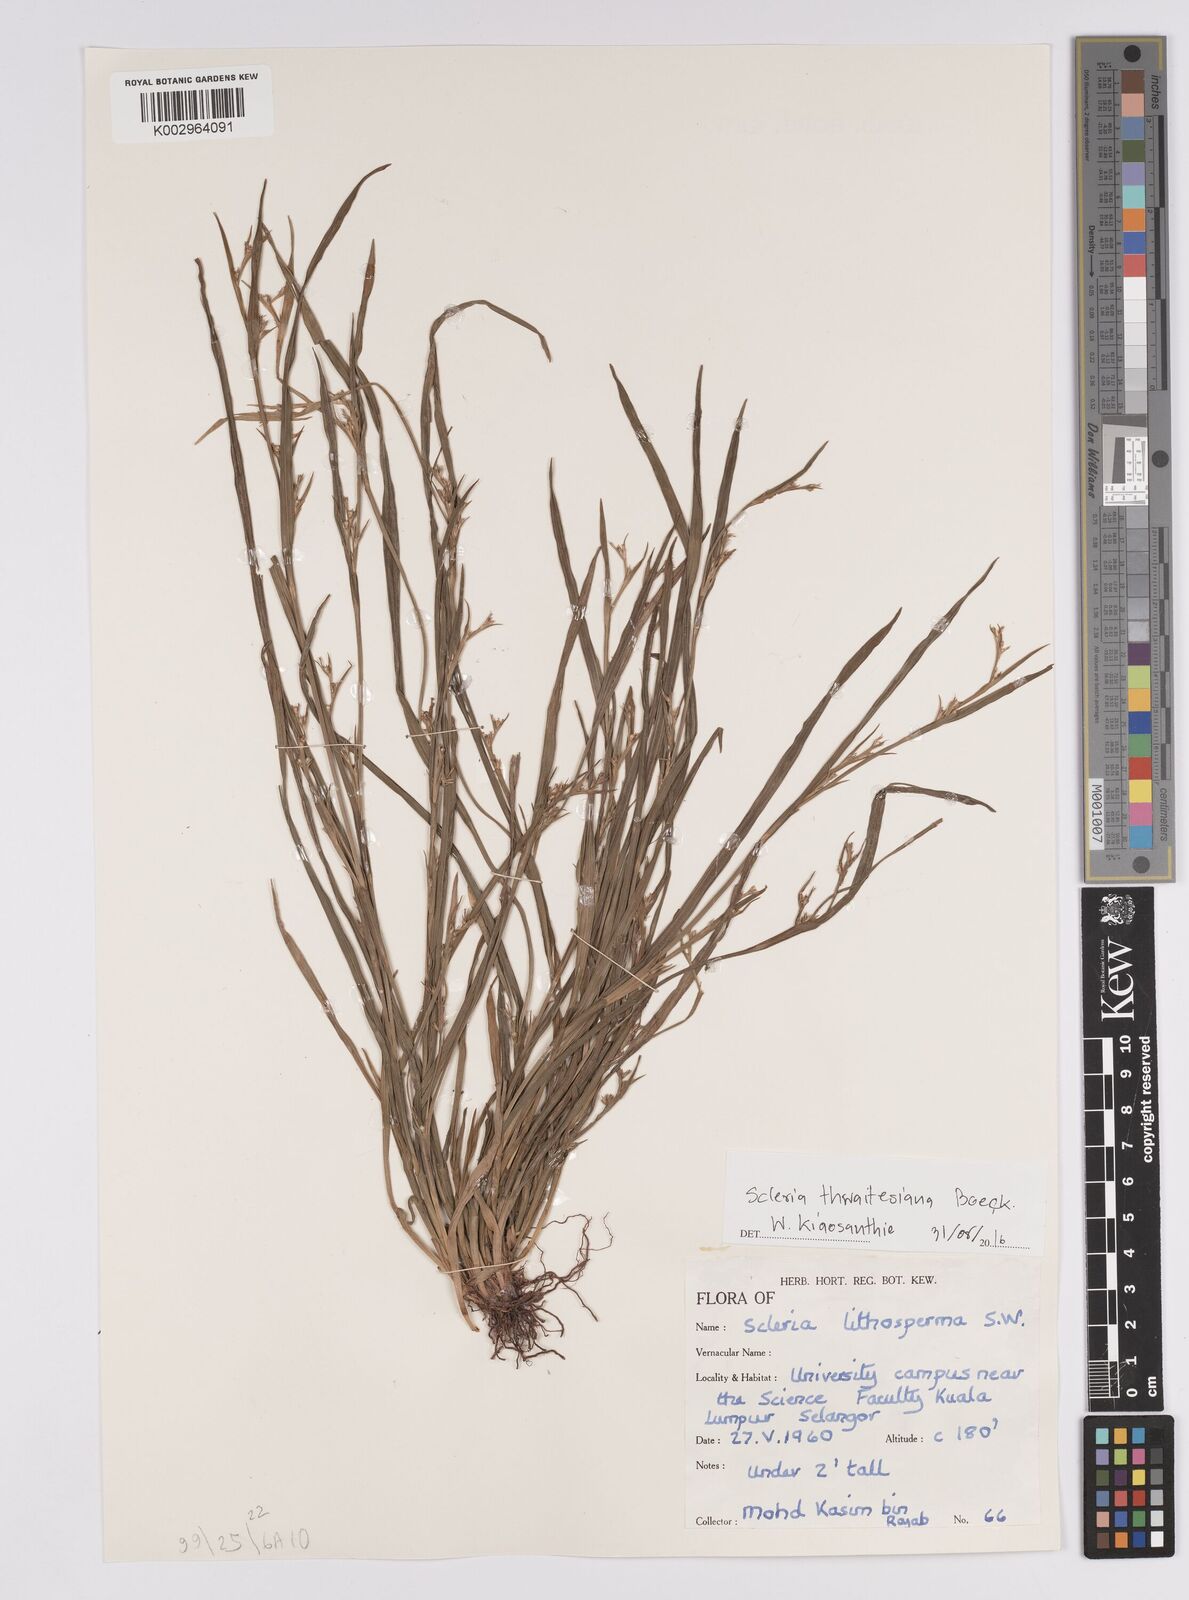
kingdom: Plantae
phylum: Tracheophyta
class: Liliopsida
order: Poales
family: Cyperaceae
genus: Scleria
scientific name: Scleria purpurascens
